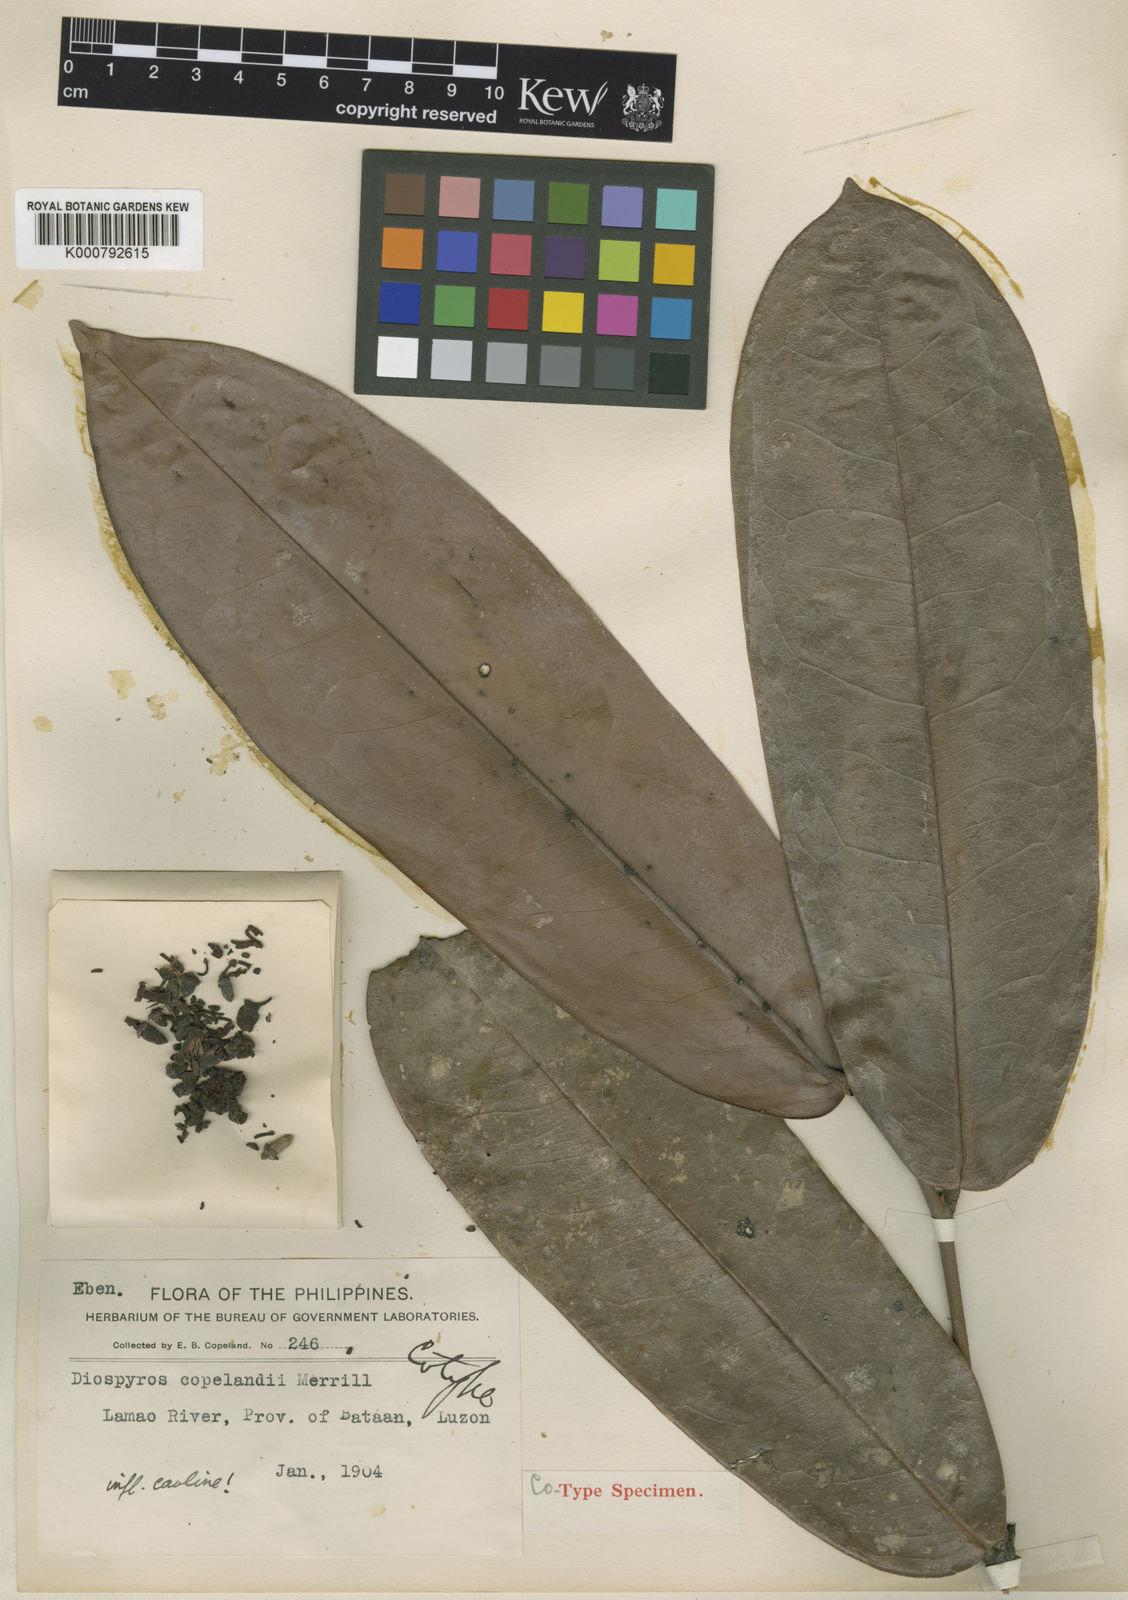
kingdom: Plantae
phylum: Tracheophyta
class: Magnoliopsida
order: Ericales
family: Ebenaceae
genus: Diospyros
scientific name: Diospyros diepenhorstii
